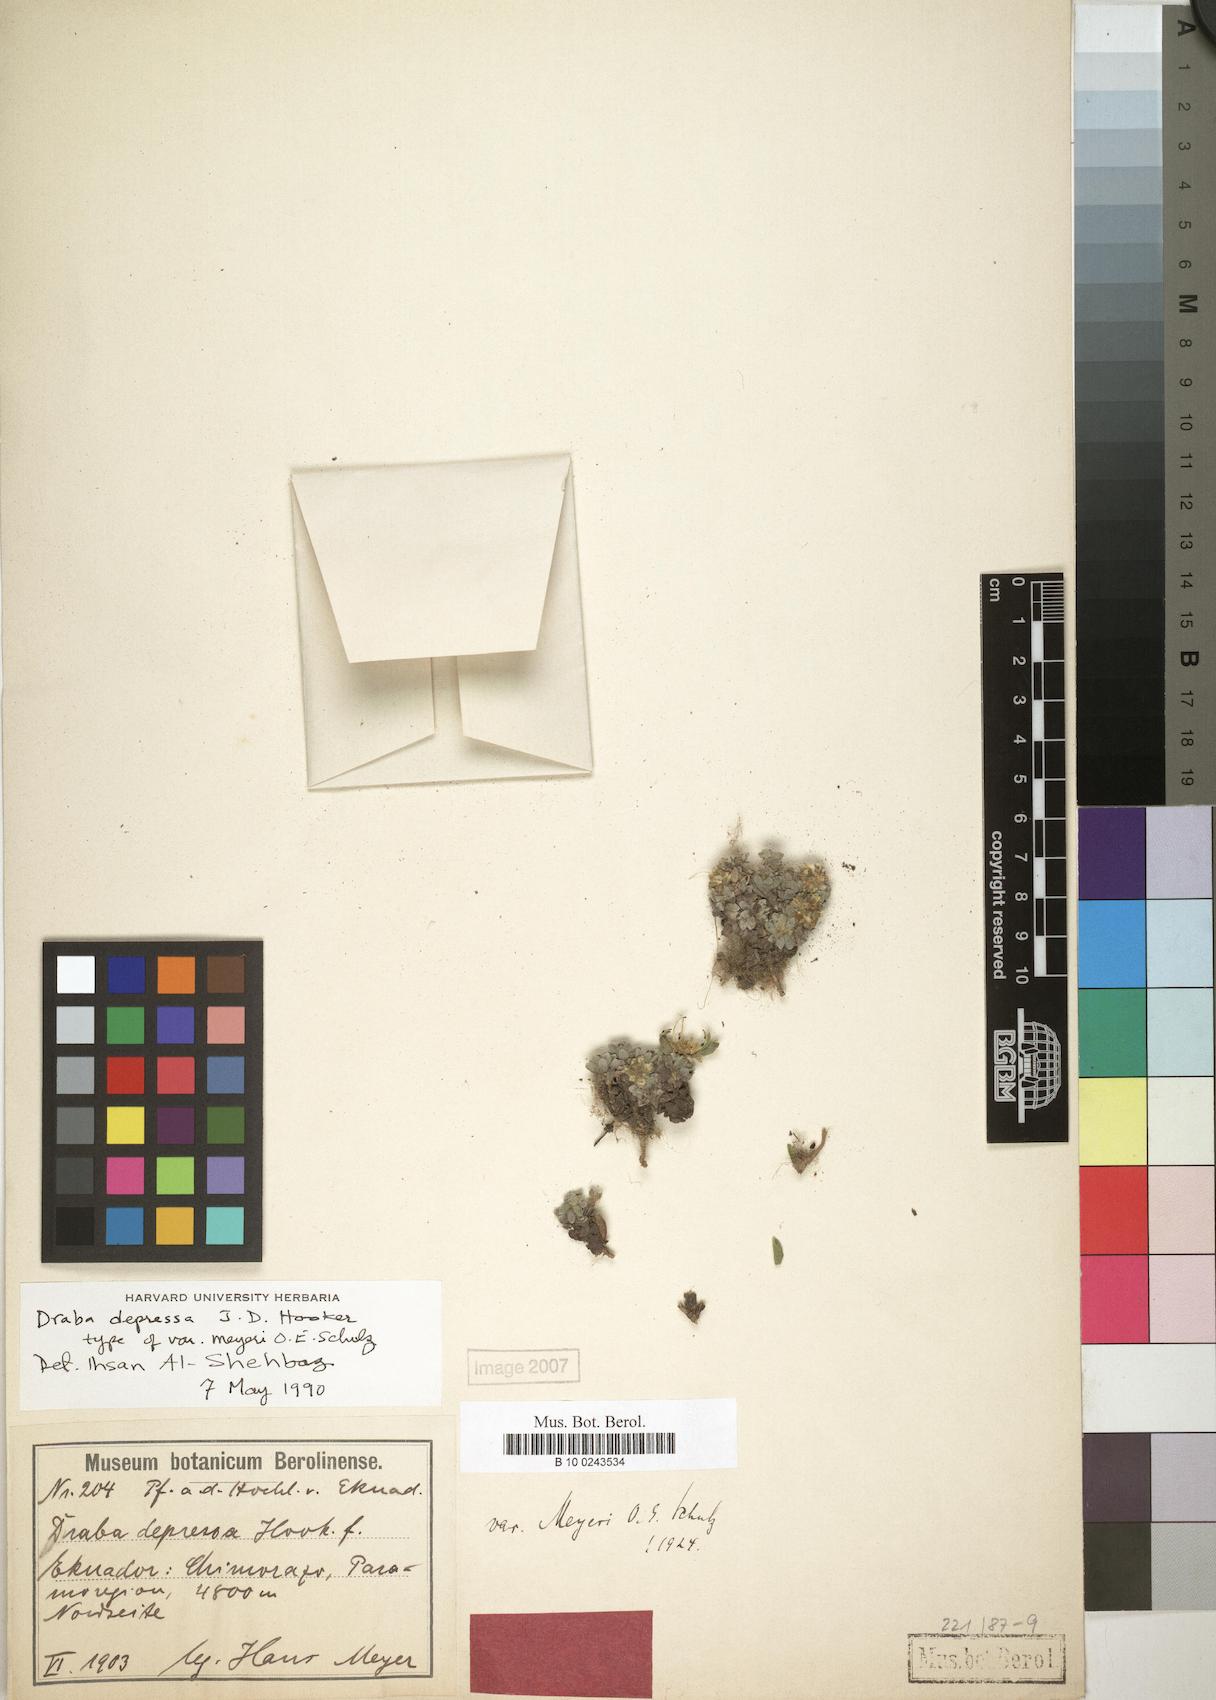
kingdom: Plantae
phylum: Tracheophyta
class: Magnoliopsida
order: Brassicales
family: Brassicaceae
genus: Draba
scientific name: Draba depressa
